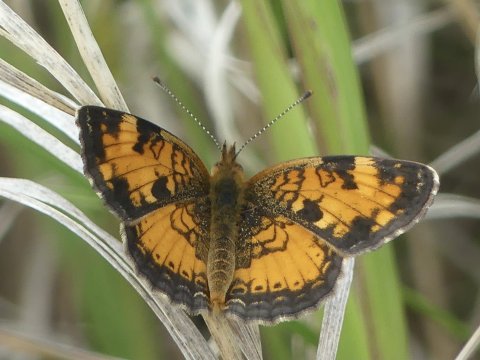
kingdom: Animalia
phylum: Arthropoda
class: Insecta
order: Lepidoptera
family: Nymphalidae
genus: Phyciodes
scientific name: Phyciodes
